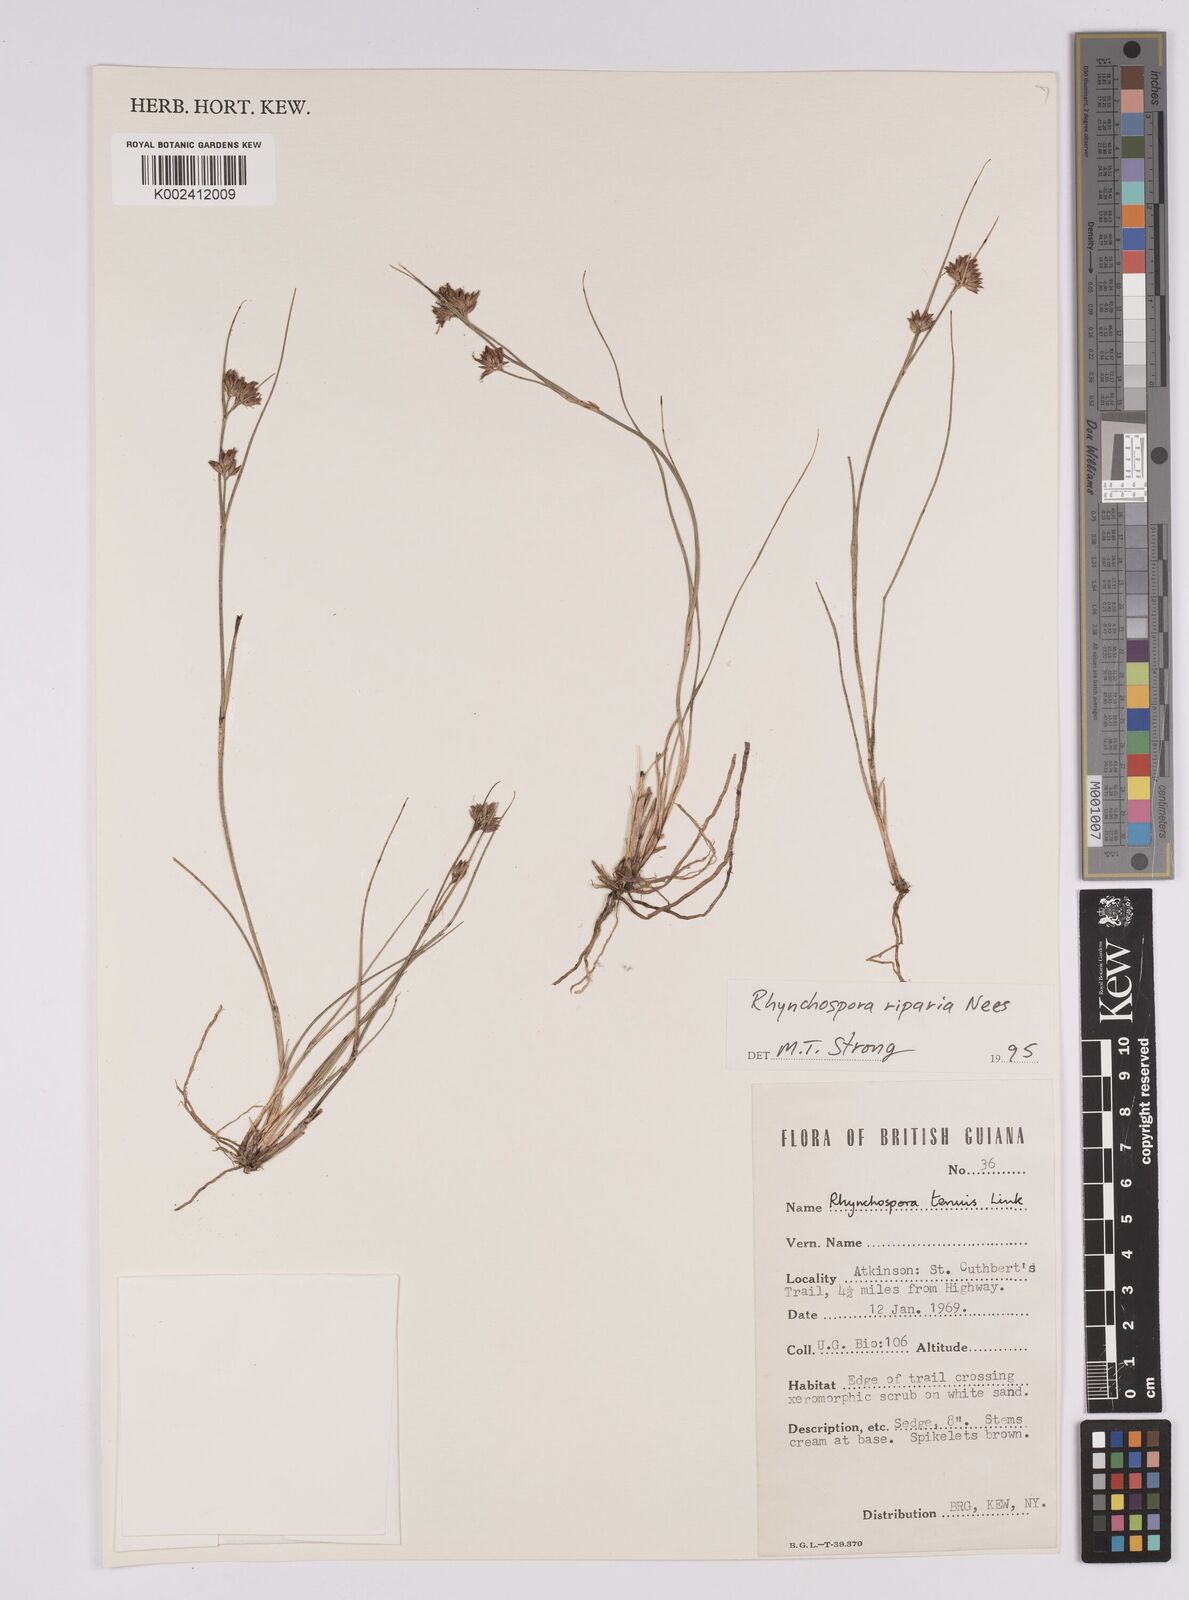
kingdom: Plantae
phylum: Tracheophyta
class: Liliopsida
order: Poales
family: Cyperaceae
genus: Rhynchospora
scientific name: Rhynchospora riparia
